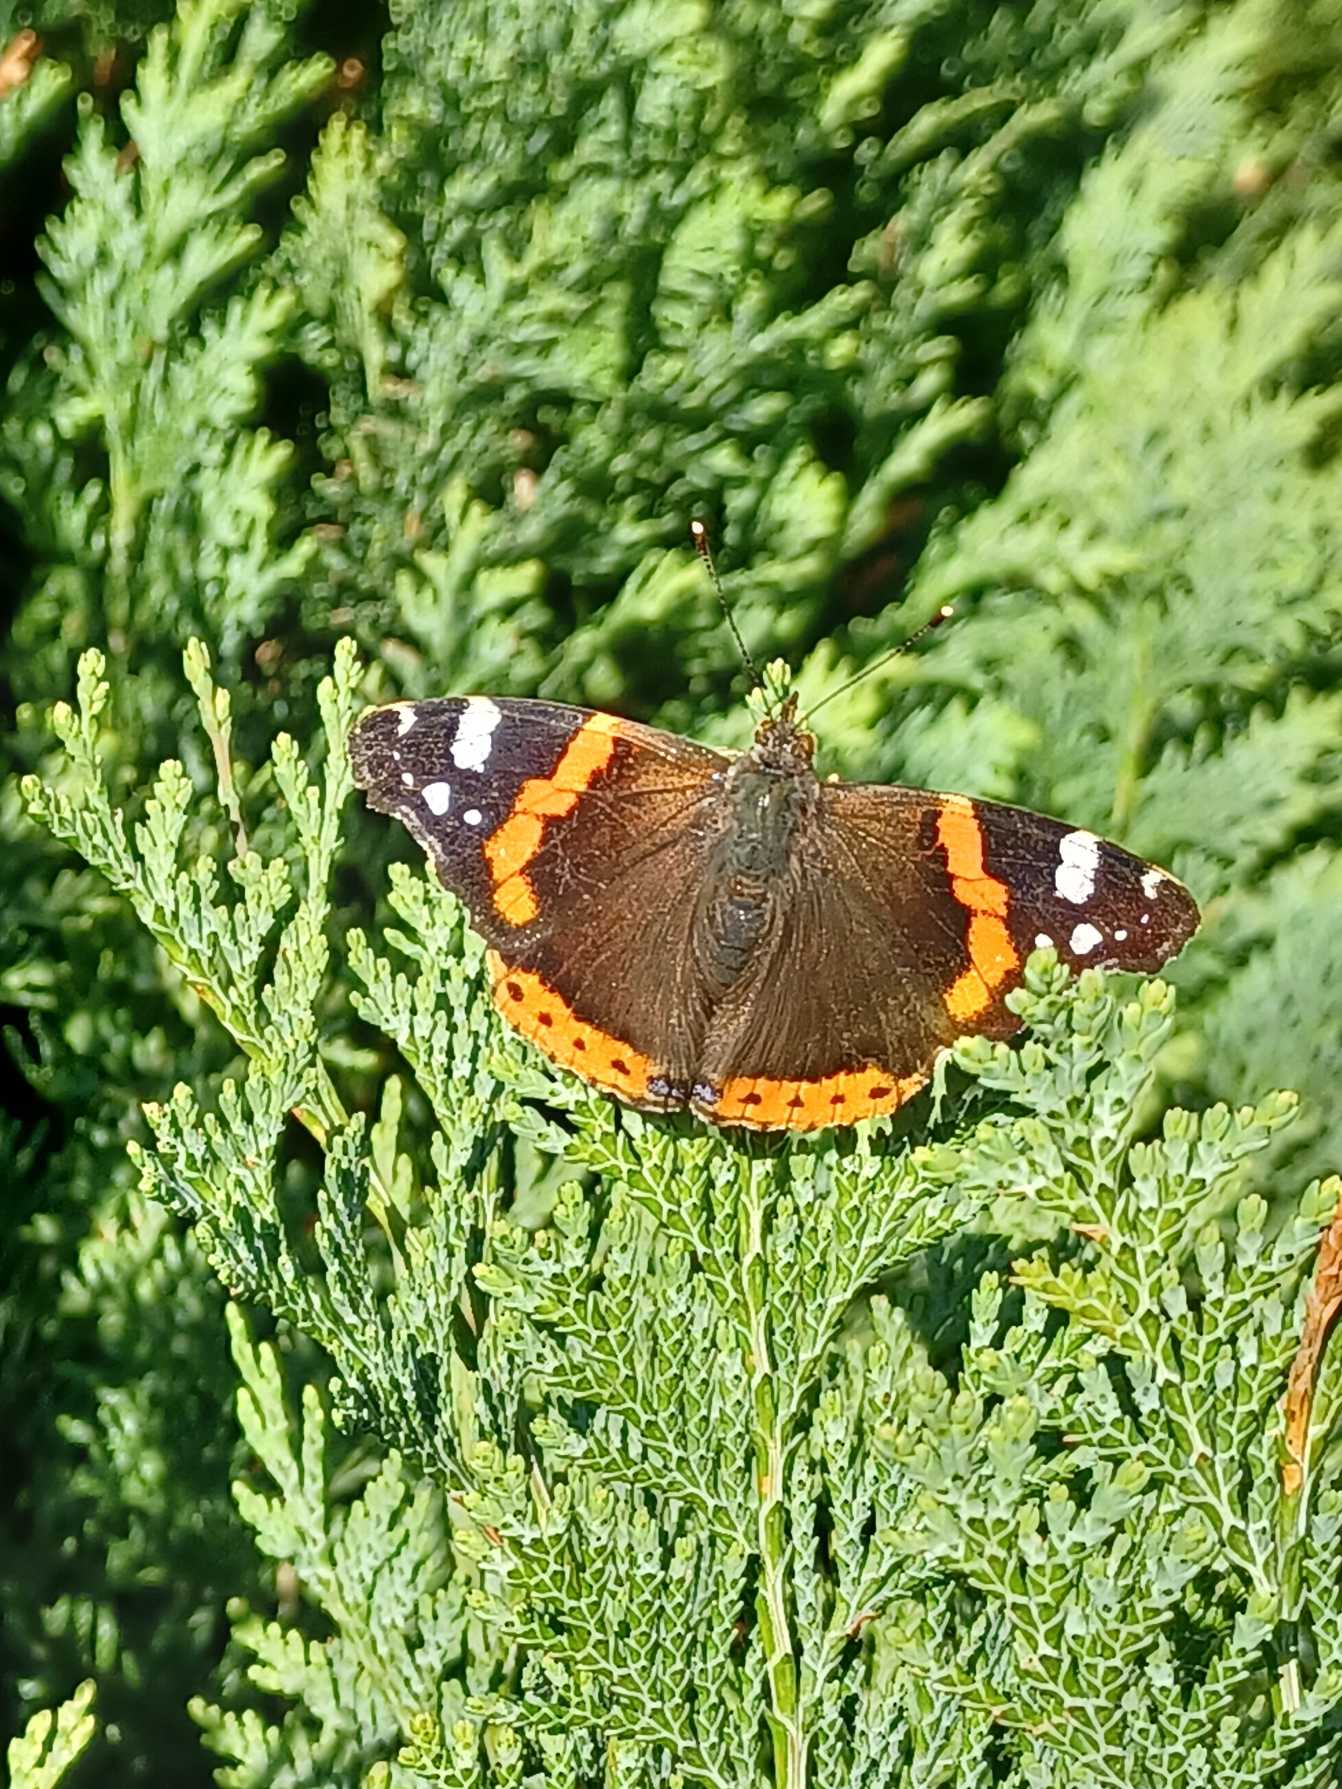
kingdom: Animalia
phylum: Arthropoda
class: Insecta
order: Lepidoptera
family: Nymphalidae
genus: Vanessa
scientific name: Vanessa atalanta
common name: Admiral
